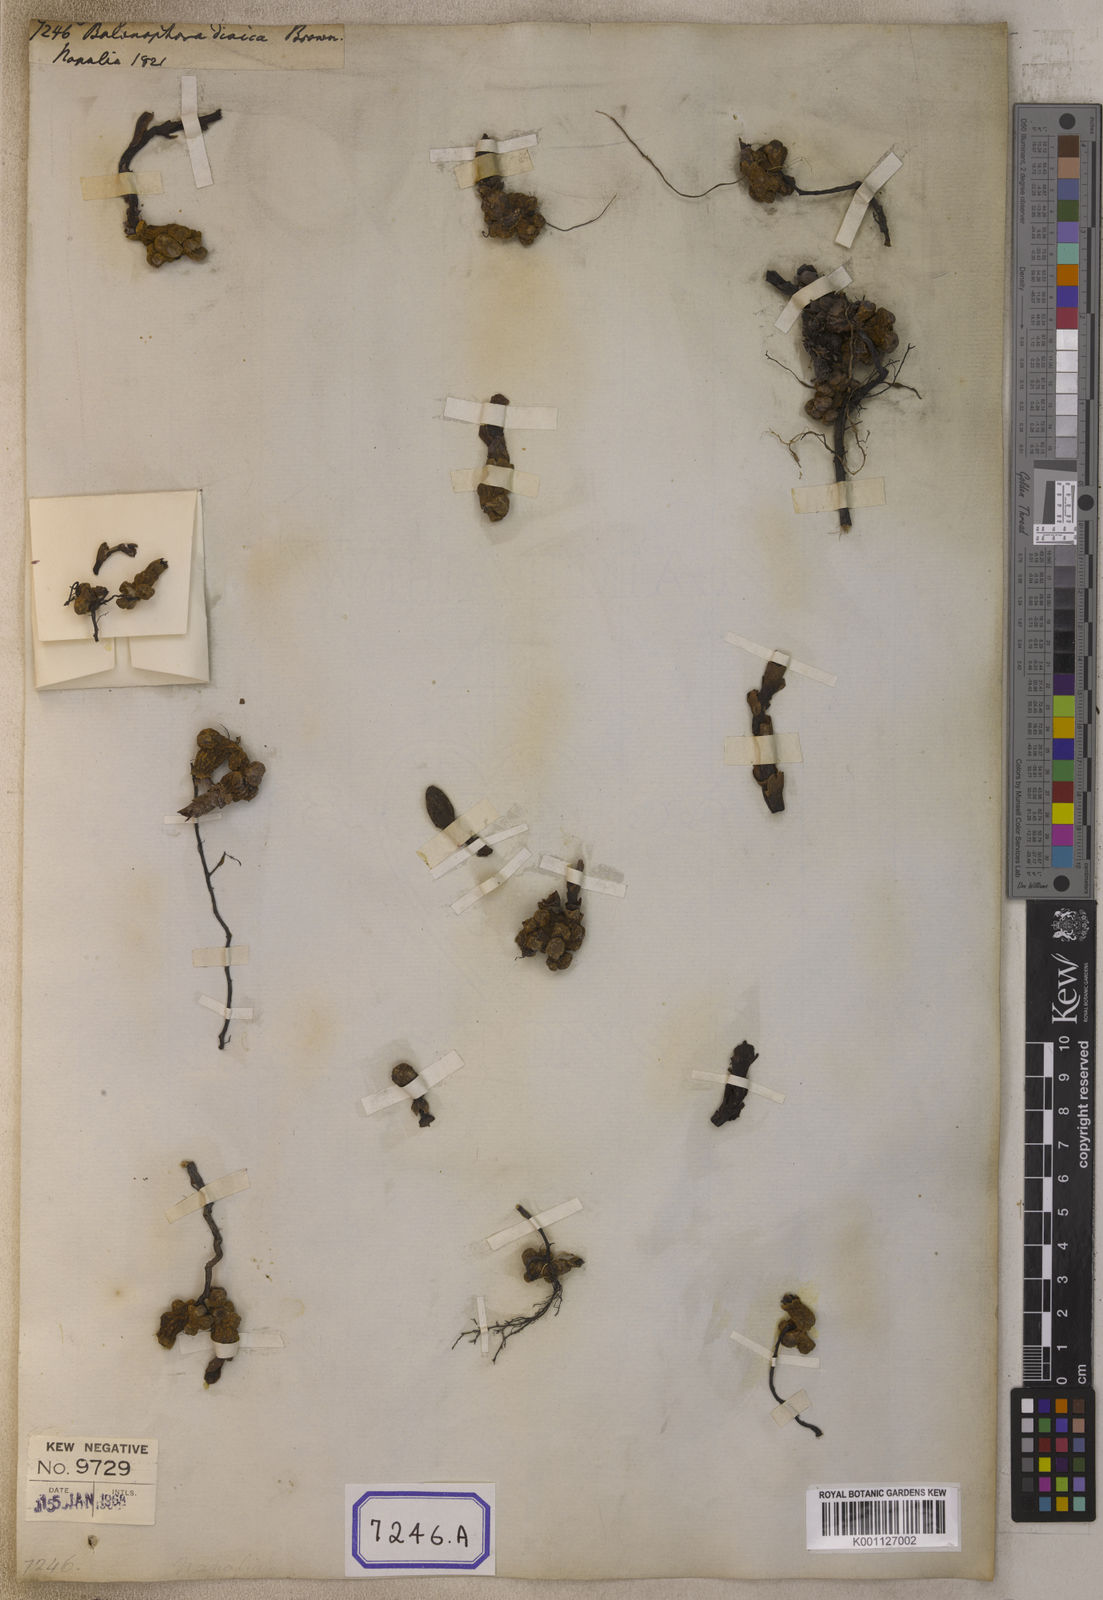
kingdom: Plantae
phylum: Tracheophyta
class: Magnoliopsida
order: Santalales
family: Balanophoraceae
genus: Balanophora
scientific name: Balanophora
